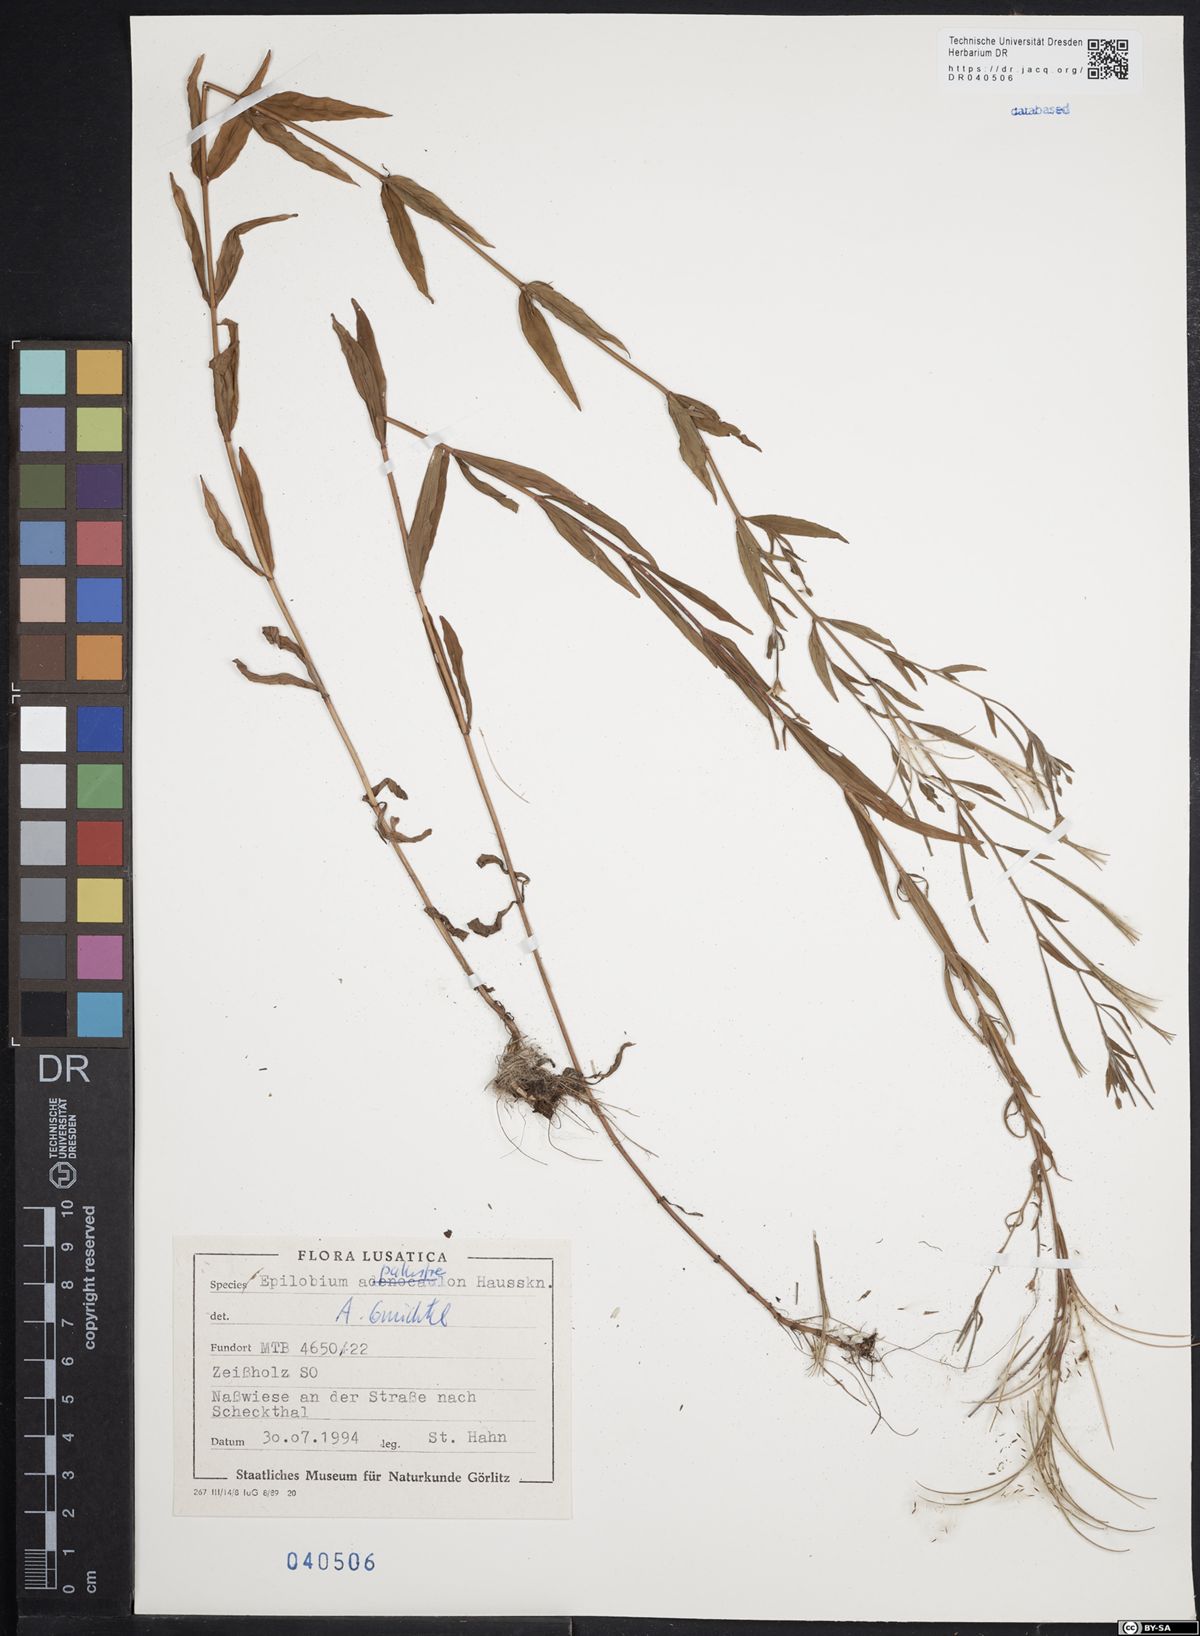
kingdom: Plantae
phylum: Tracheophyta
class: Magnoliopsida
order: Myrtales
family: Onagraceae
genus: Epilobium
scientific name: Epilobium palustre
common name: Marsh willowherb
